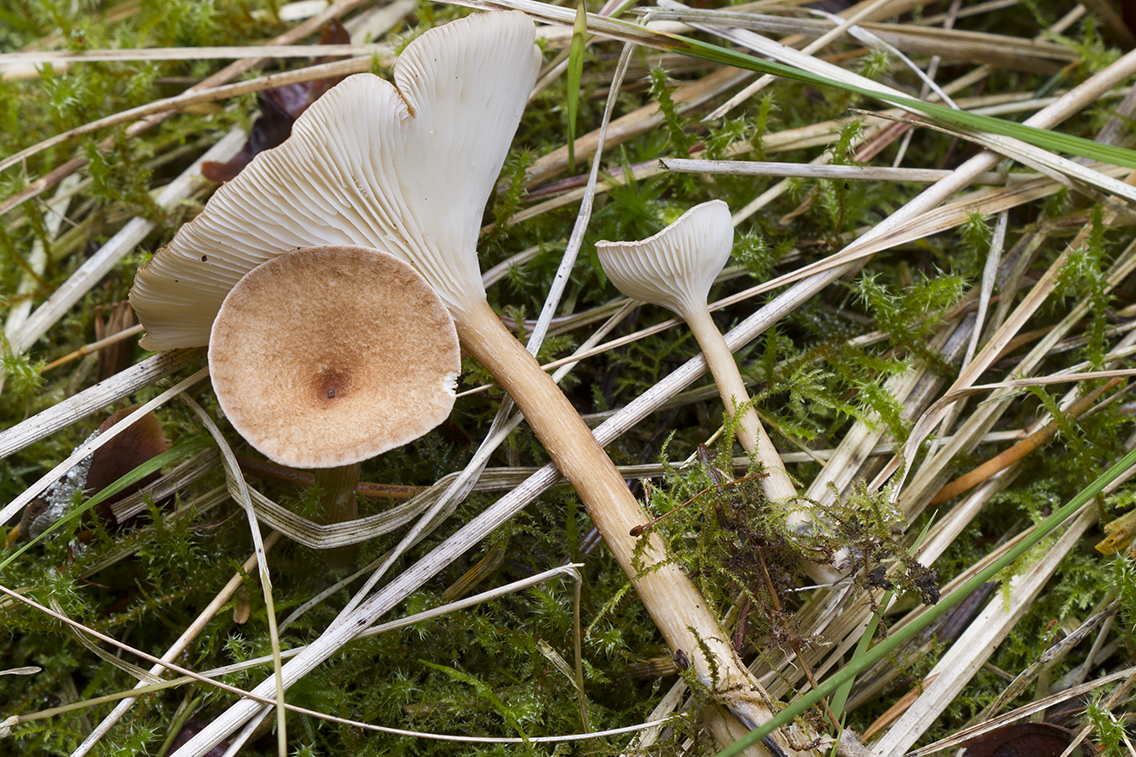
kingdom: Fungi
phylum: Basidiomycota
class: Agaricomycetes
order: Agaricales
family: Tricholomataceae
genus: Infundibulicybe
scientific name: Infundibulicybe gibba
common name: almindelig tragthat
